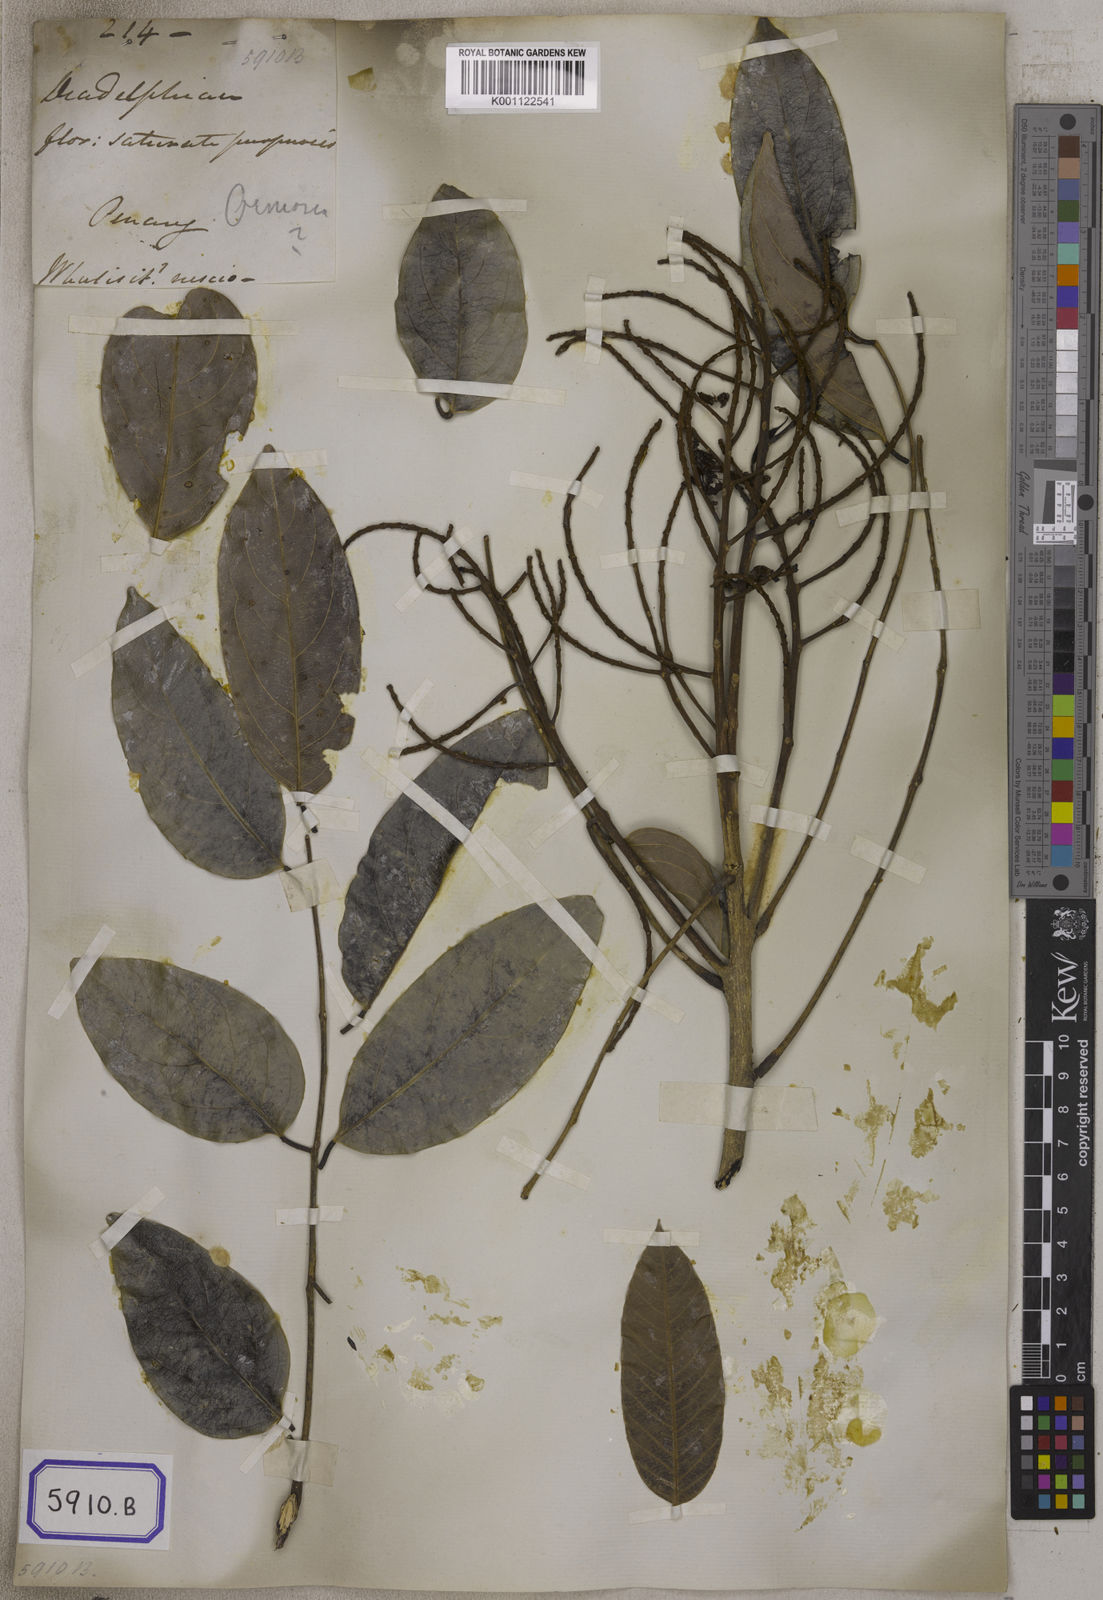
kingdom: Plantae
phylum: Tracheophyta
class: Magnoliopsida
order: Fabales
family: Fabaceae
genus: Adinobotrys
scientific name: Adinobotrys atropurpureus
